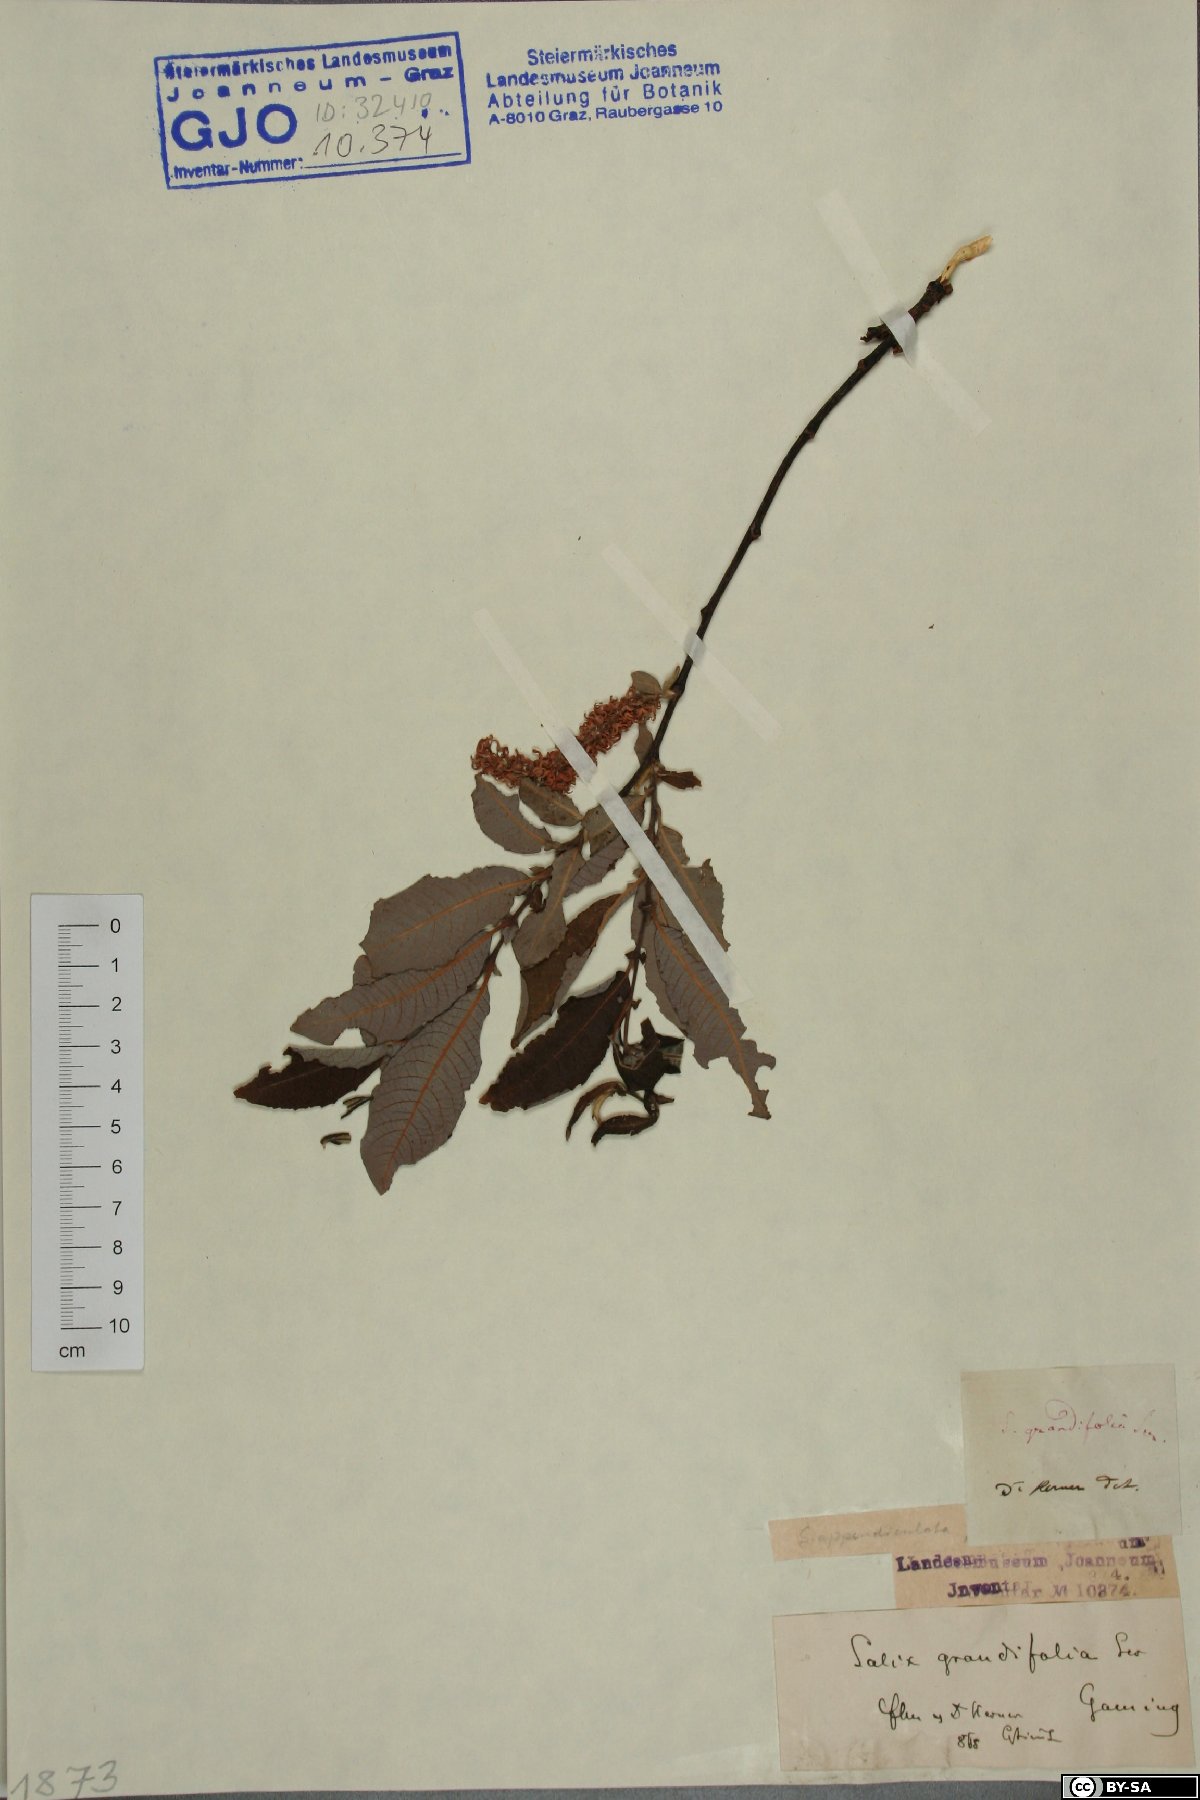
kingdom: Plantae
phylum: Tracheophyta
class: Magnoliopsida
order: Malpighiales
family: Salicaceae
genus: Salix
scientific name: Salix appendiculata
